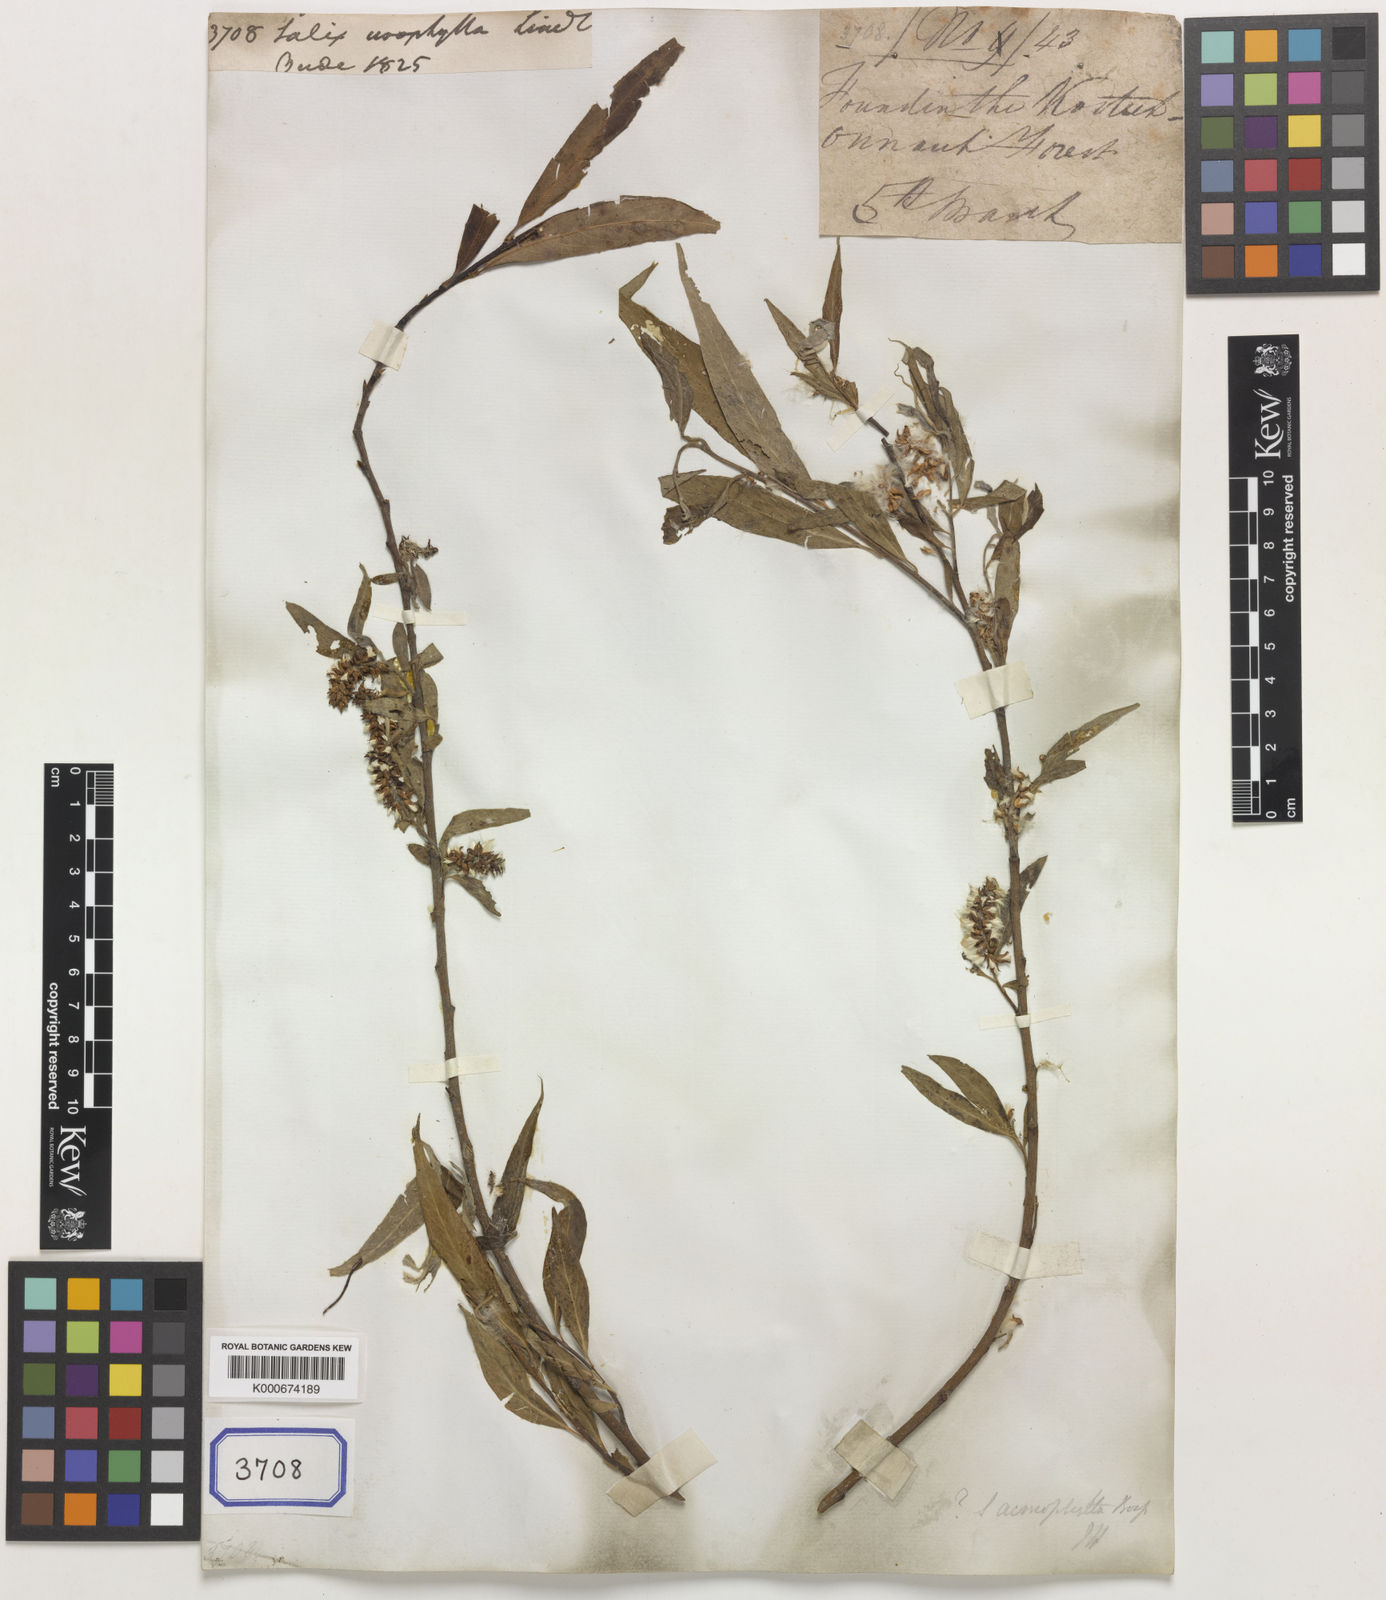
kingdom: Plantae
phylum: Tracheophyta
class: Magnoliopsida
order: Malpighiales
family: Salicaceae
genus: Salix
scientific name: Salix
